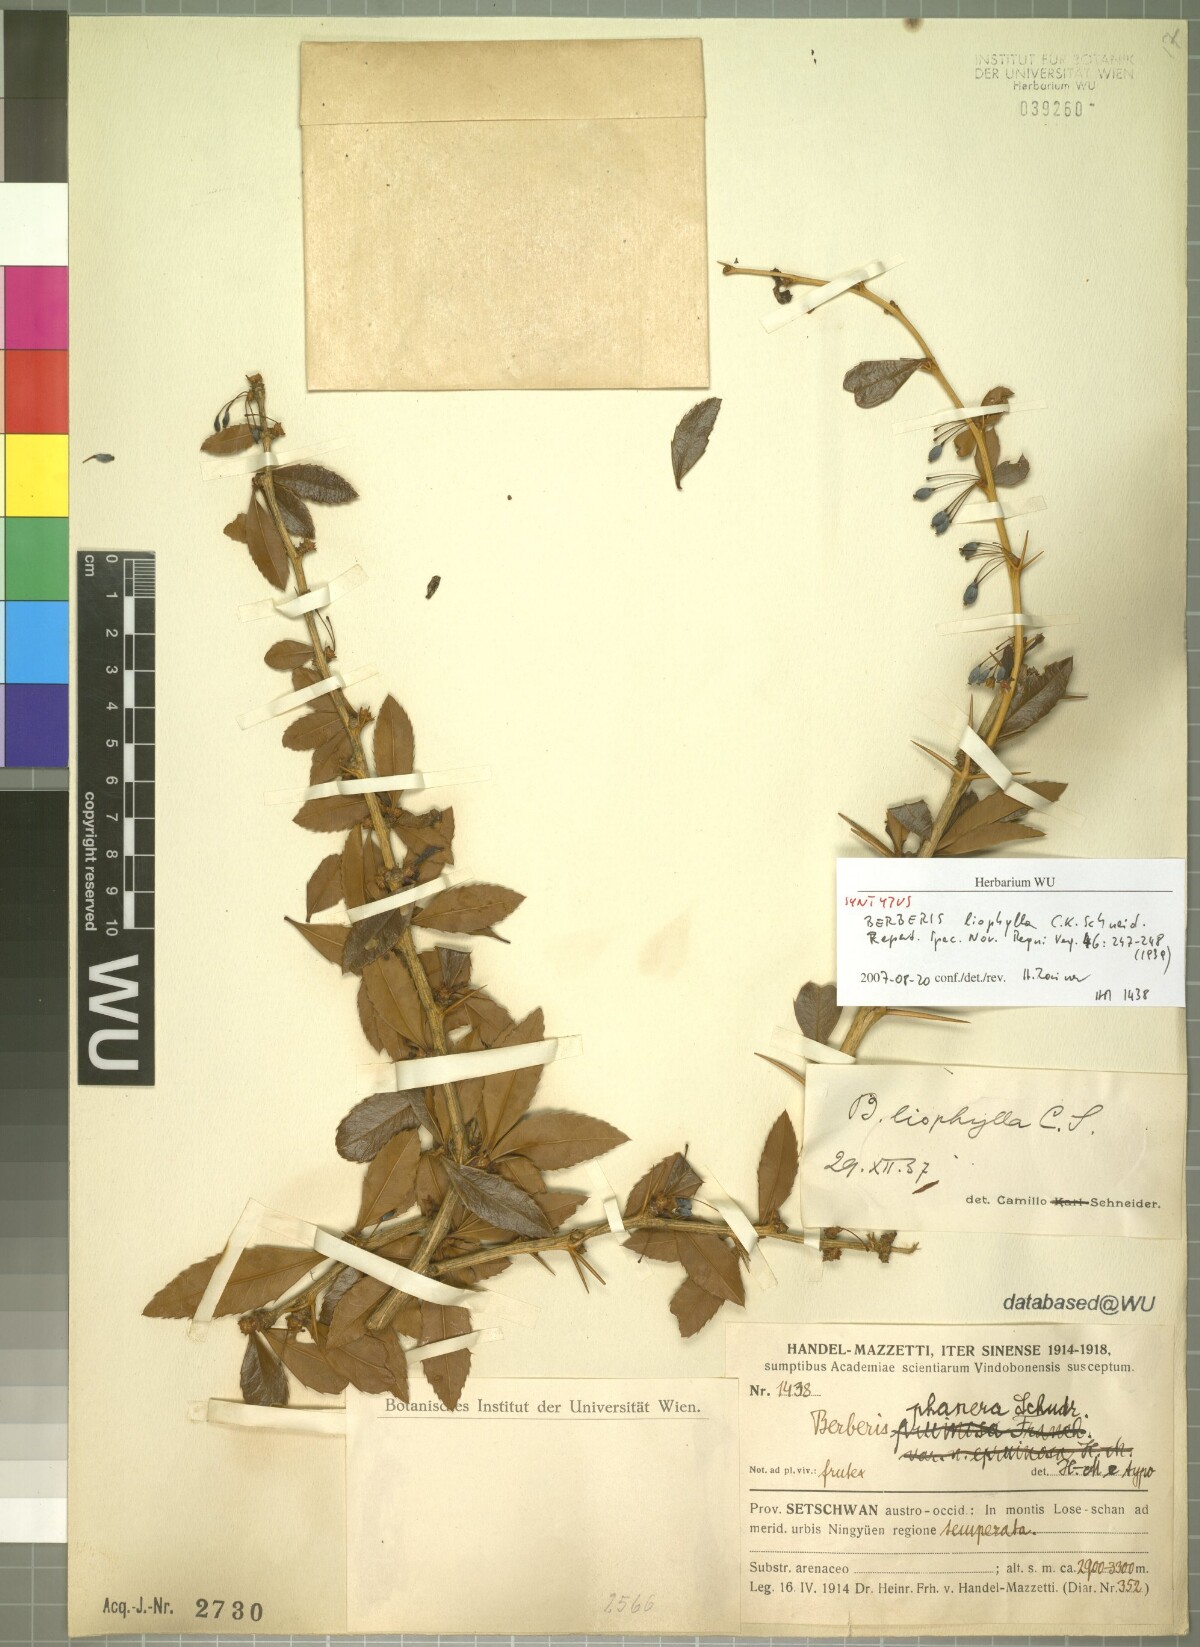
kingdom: Plantae
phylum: Tracheophyta
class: Magnoliopsida
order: Ranunculales
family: Berberidaceae
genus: Berberis
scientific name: Berberis liophylla
